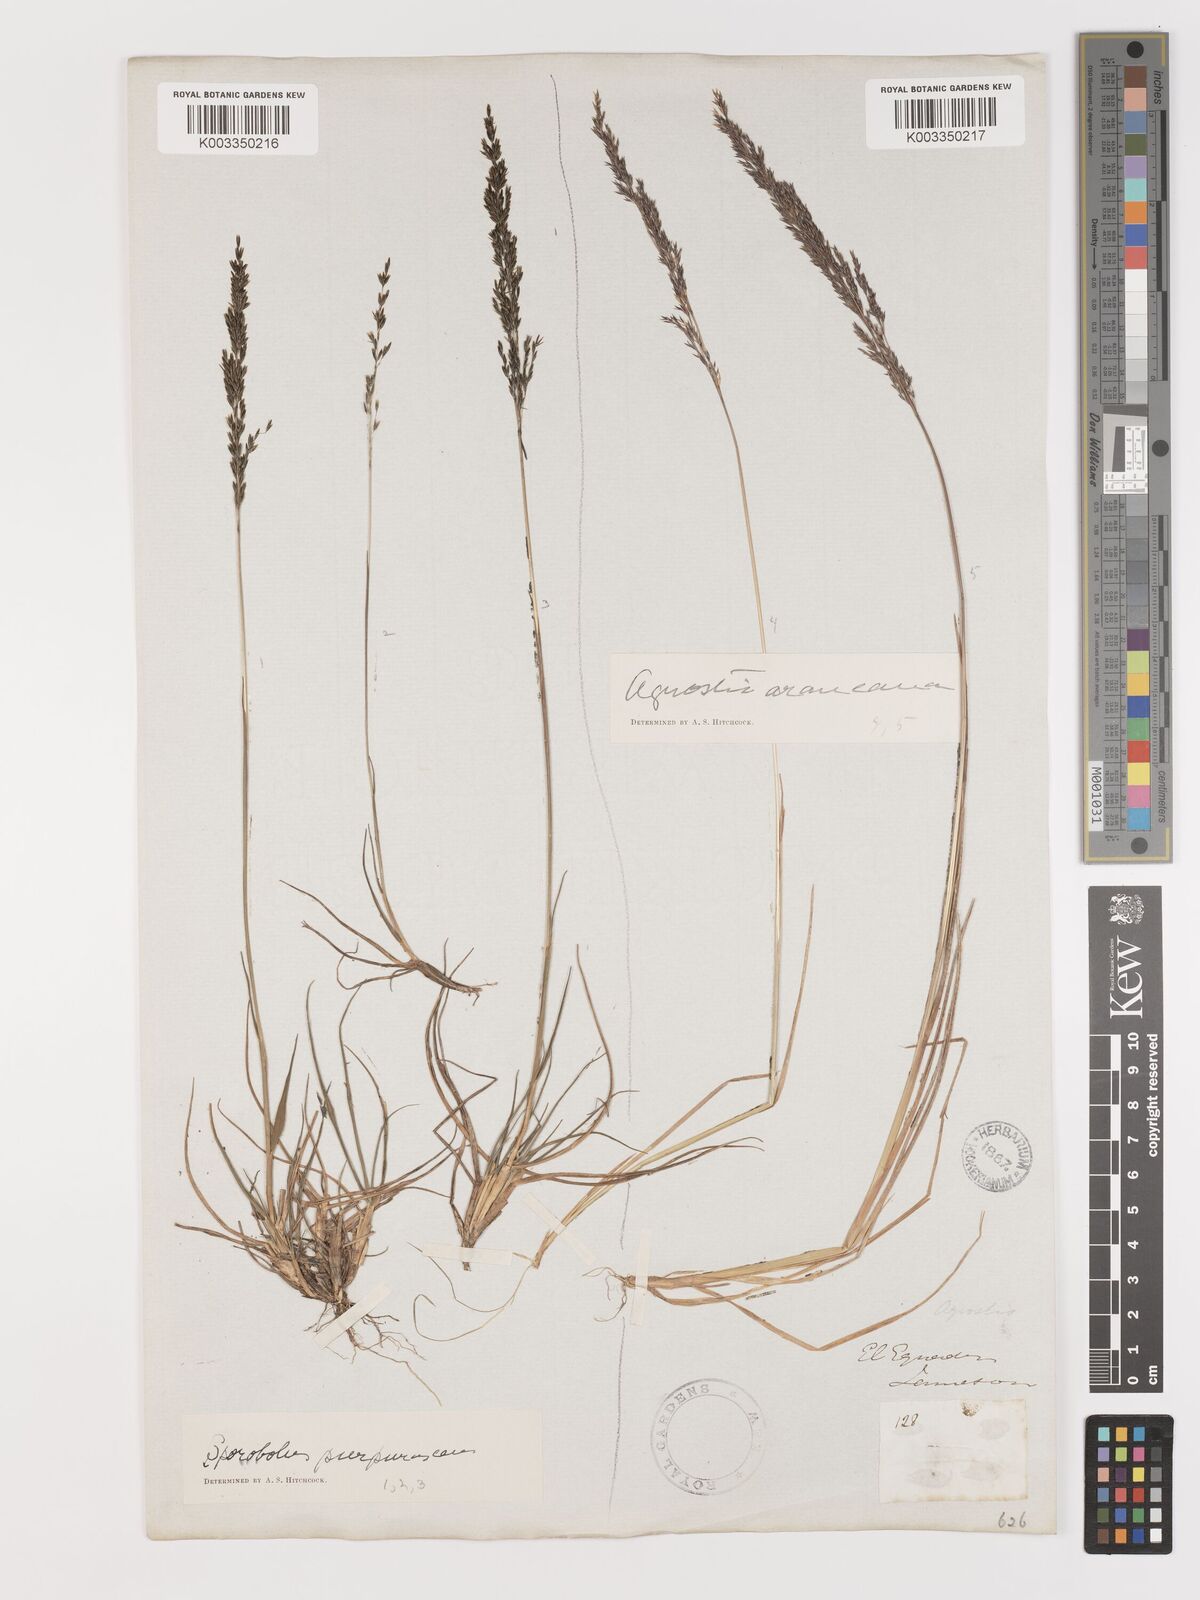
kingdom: Plantae
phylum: Tracheophyta
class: Liliopsida
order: Poales
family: Poaceae
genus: Agrostis
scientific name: Agrostis
